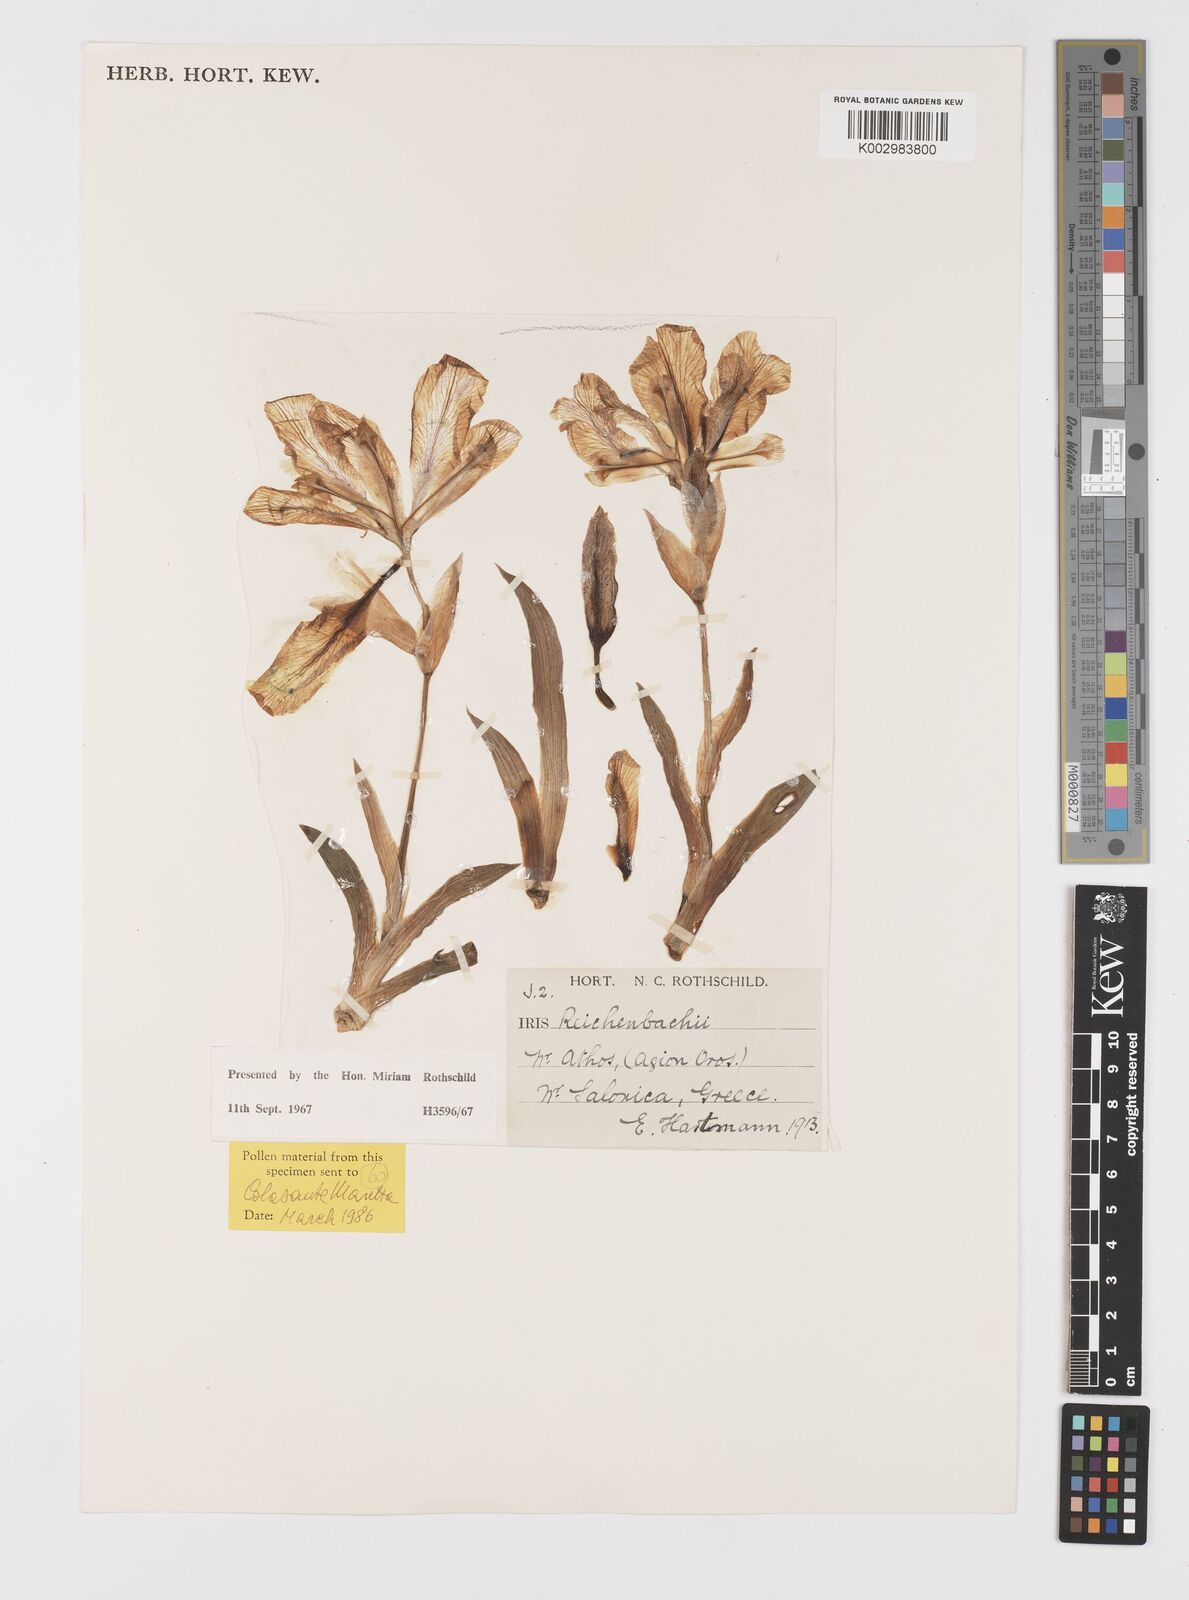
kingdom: Plantae
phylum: Tracheophyta
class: Liliopsida
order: Asparagales
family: Iridaceae
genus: Iris
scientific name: Iris reichenbachii
